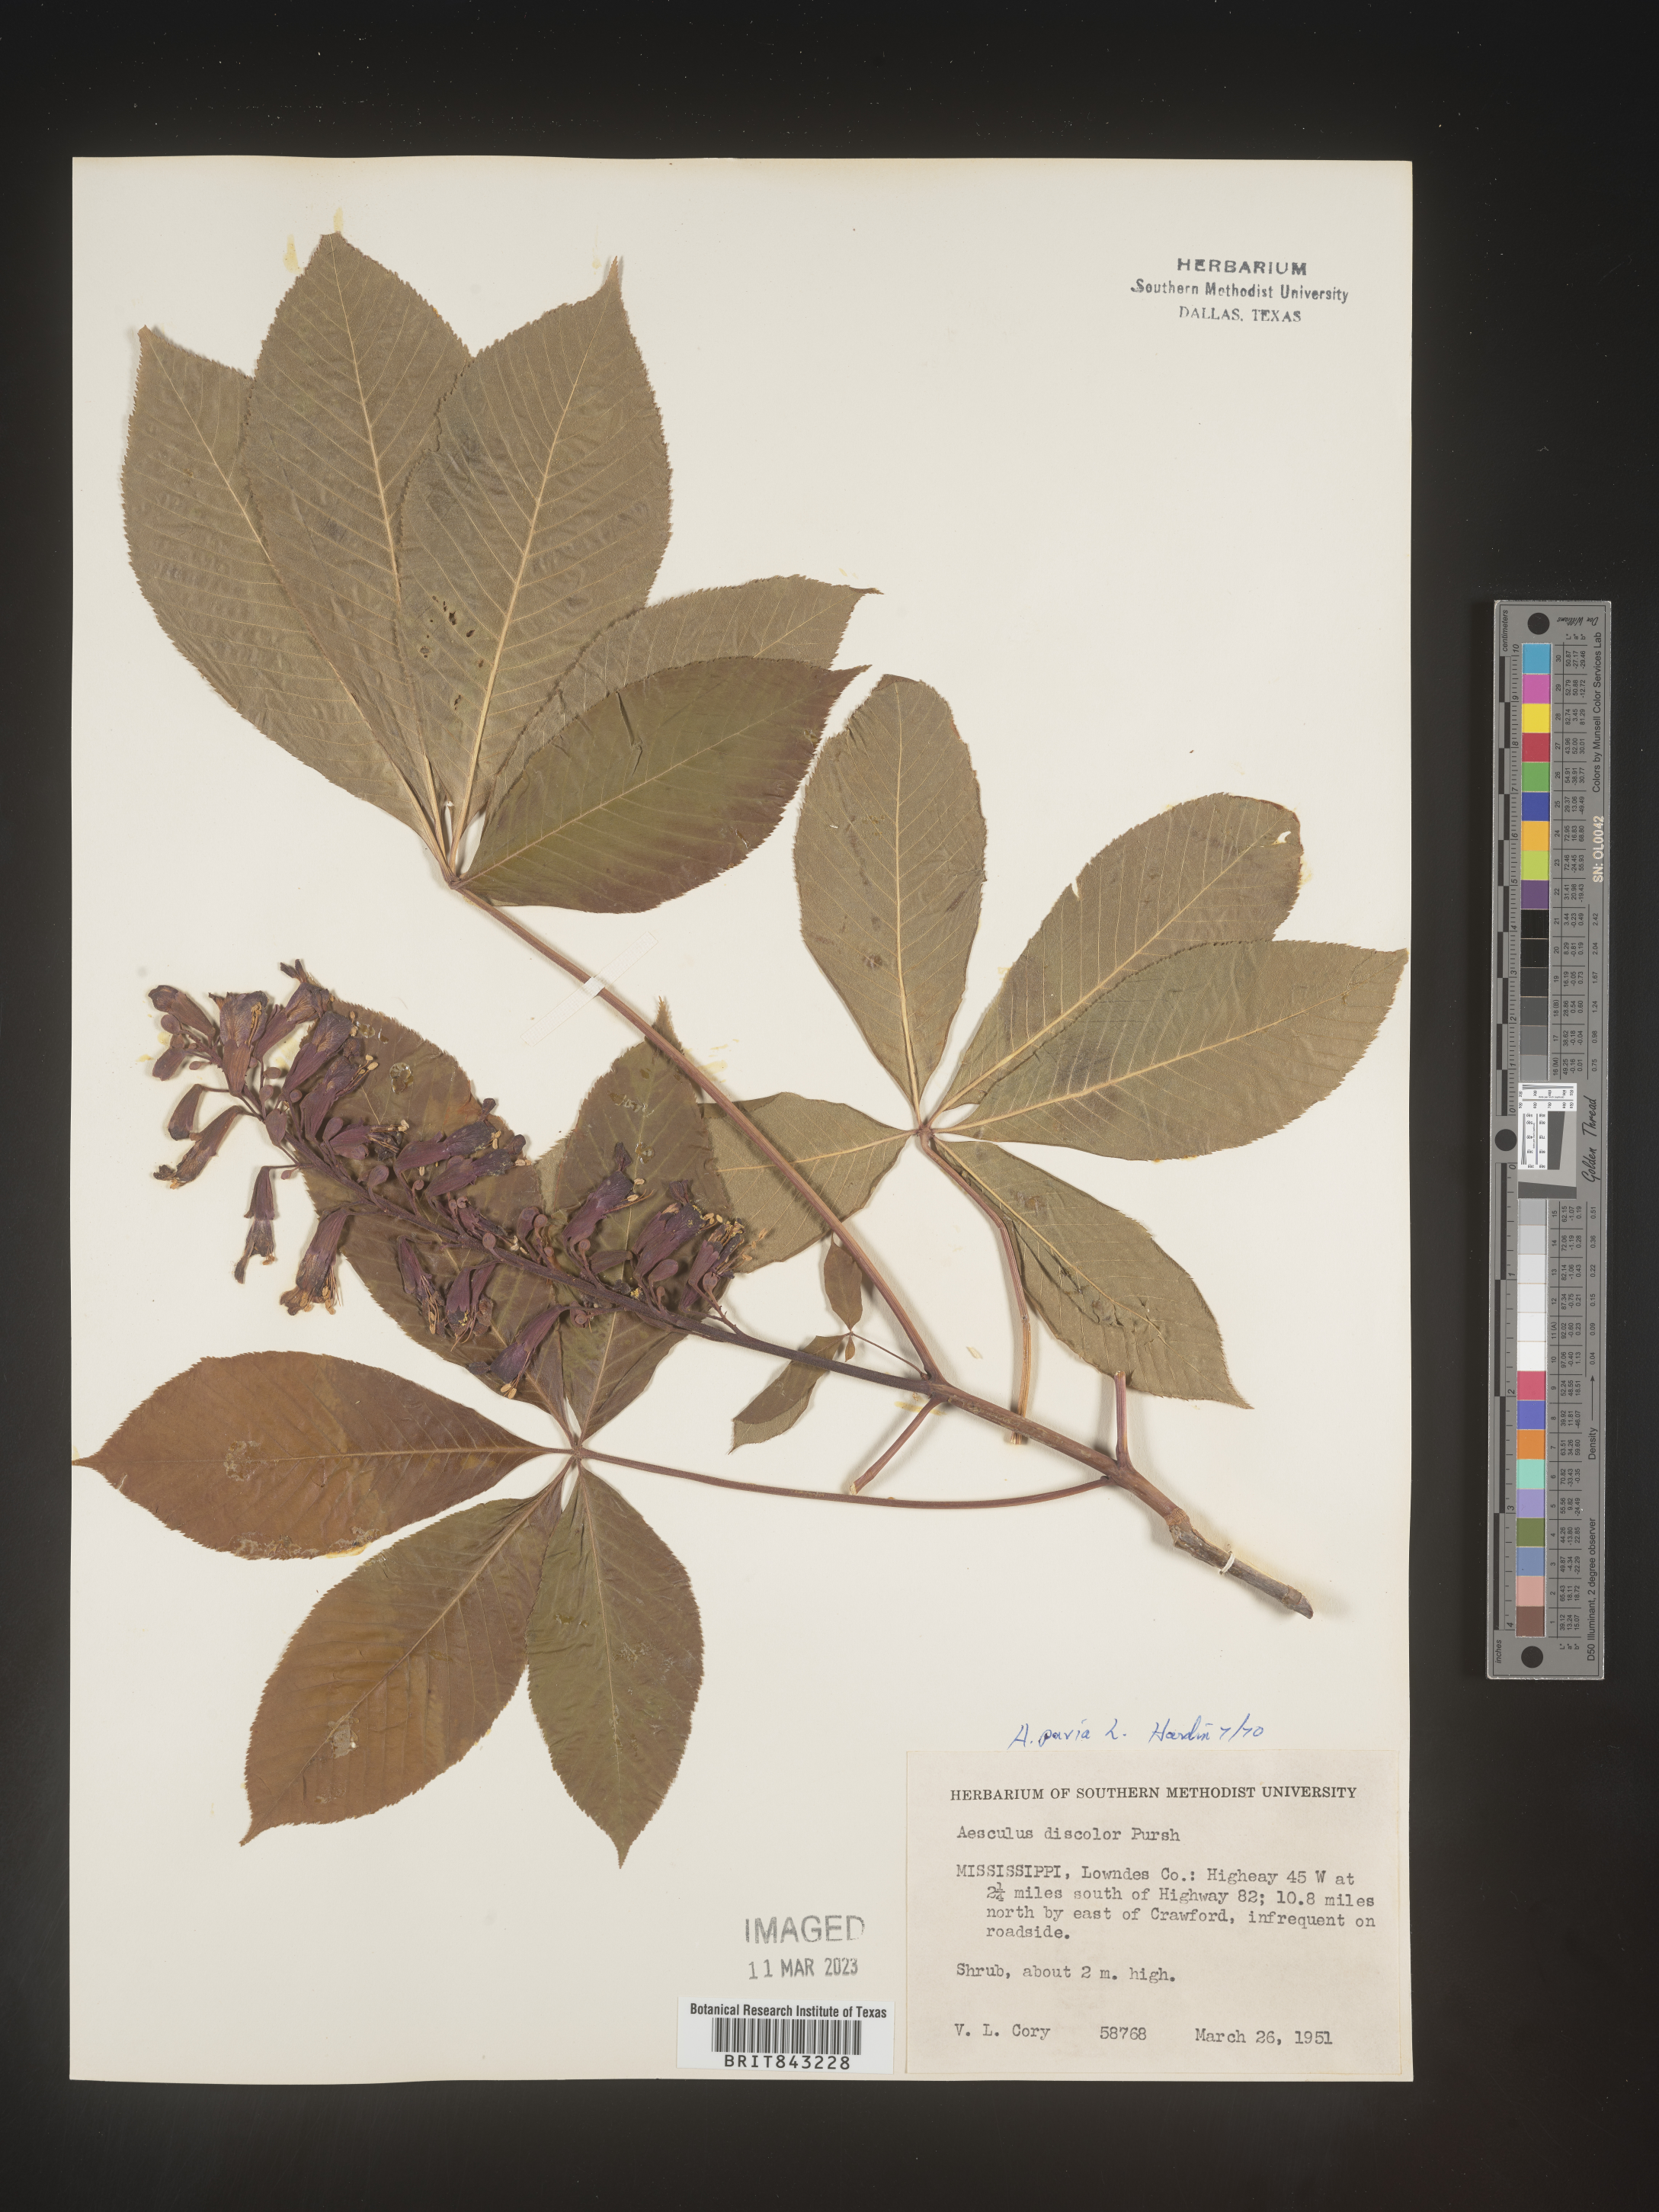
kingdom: Plantae
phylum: Tracheophyta
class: Magnoliopsida
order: Sapindales
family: Sapindaceae
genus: Aesculus
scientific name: Aesculus pavia
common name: Red buckeye
